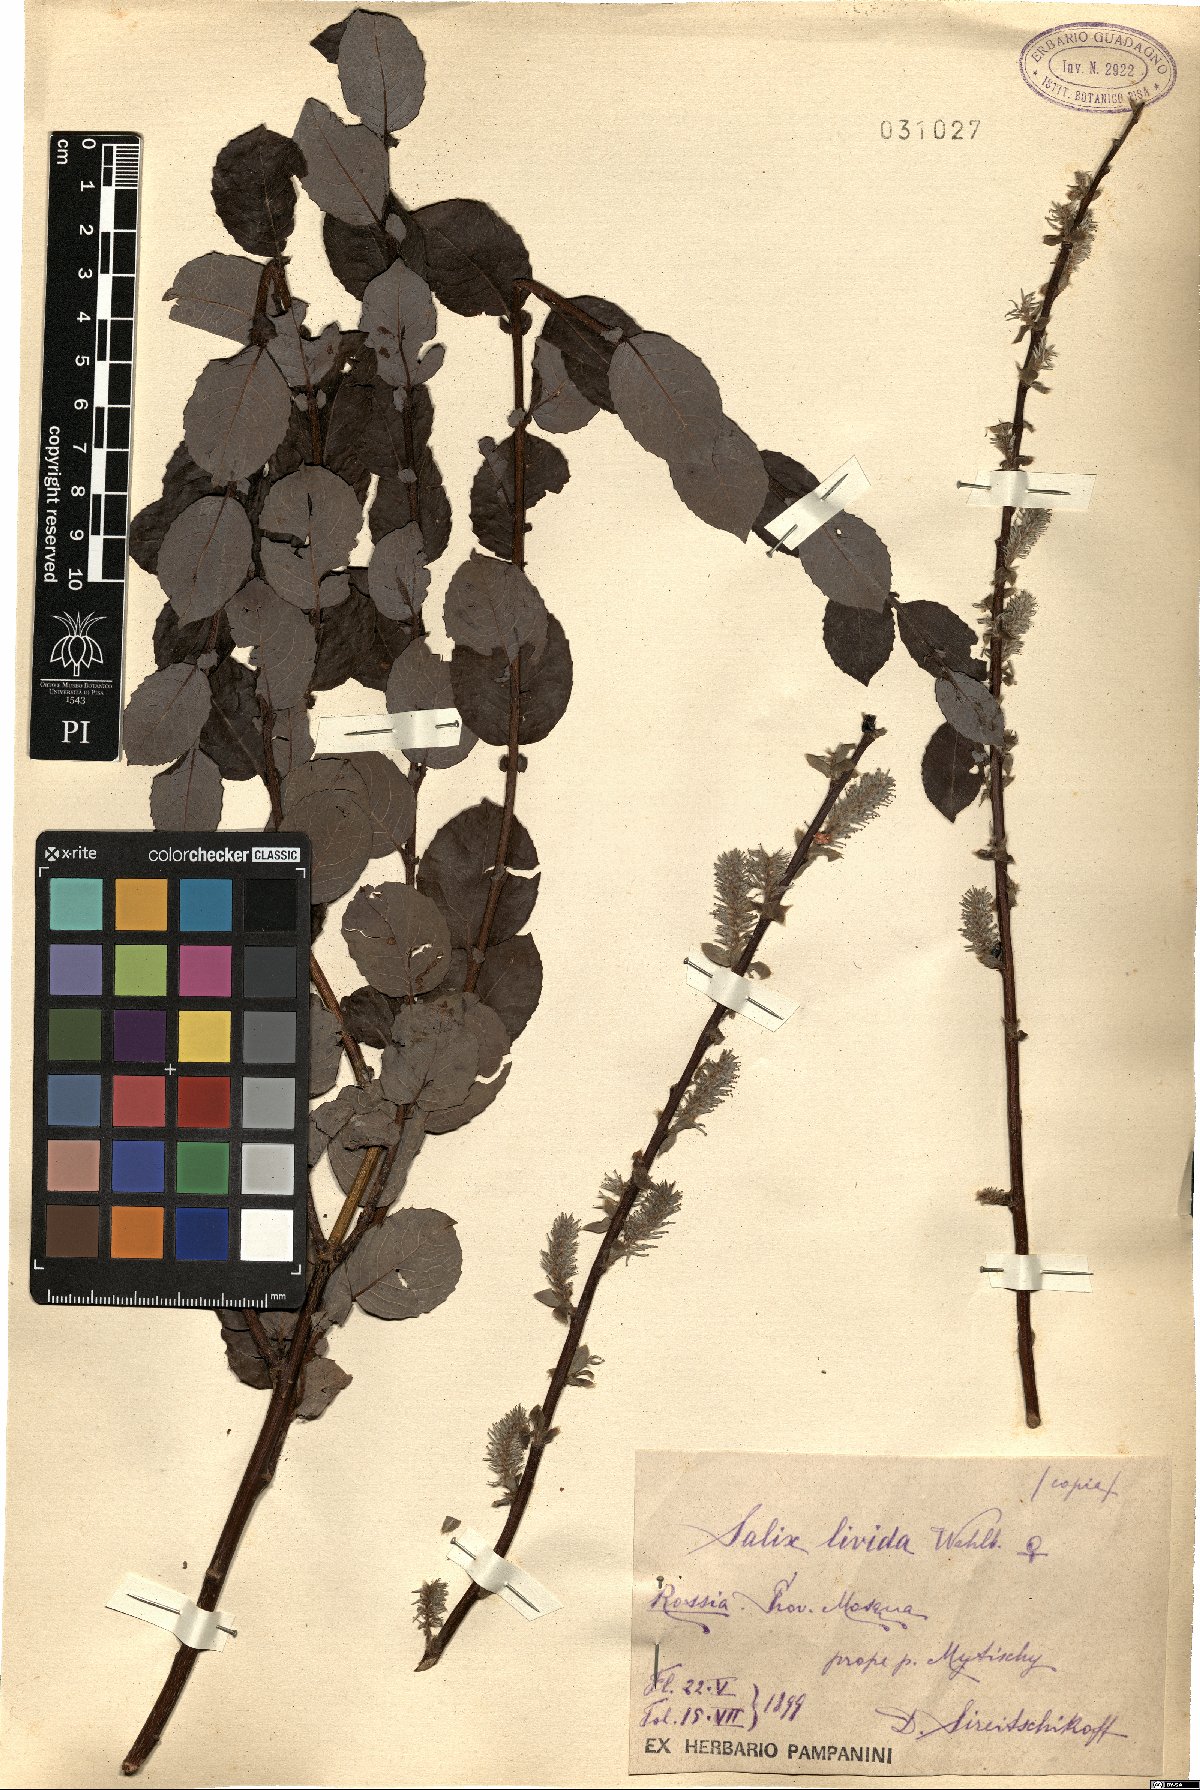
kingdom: Plantae
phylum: Tracheophyta
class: Magnoliopsida
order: Malpighiales
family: Salicaceae
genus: Salix
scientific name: Salix starkeana
